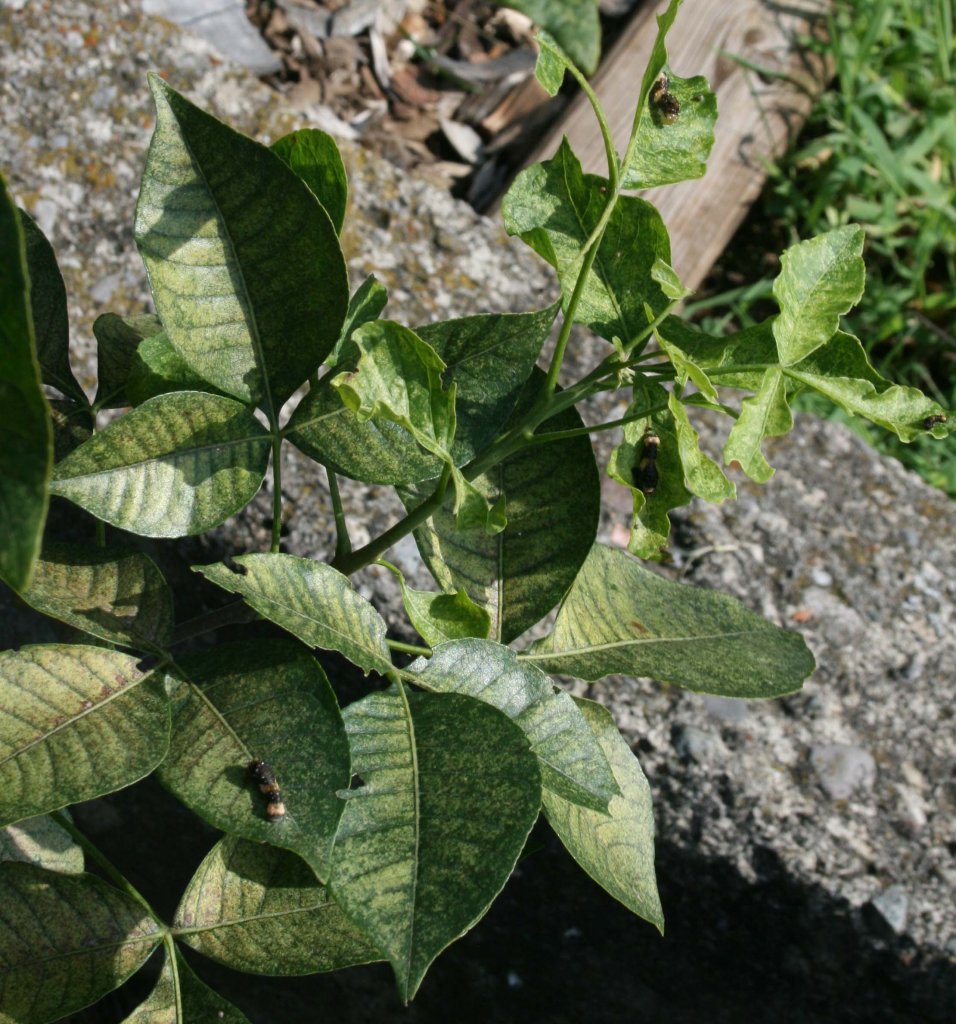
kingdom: Animalia
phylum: Arthropoda
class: Insecta
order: Lepidoptera
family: Papilionidae
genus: Papilio
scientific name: Papilio cresphontes
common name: Eastern Giant Swallowtail
